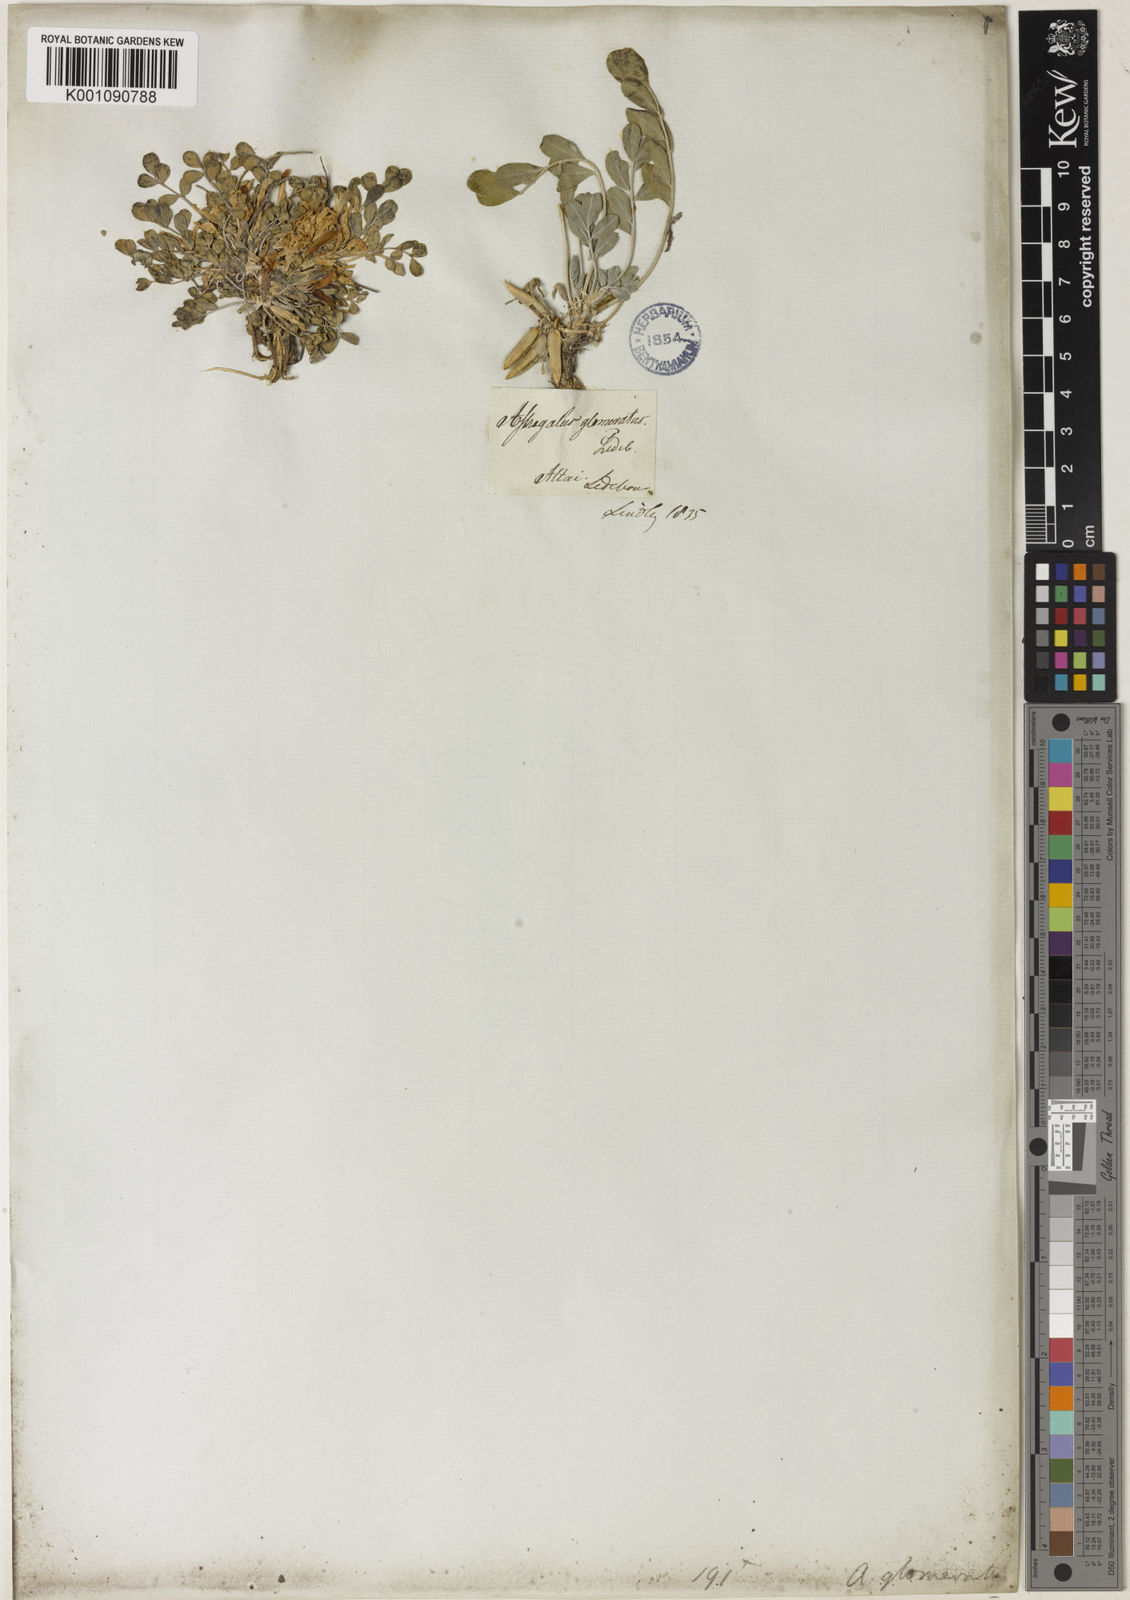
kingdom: Plantae
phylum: Tracheophyta
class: Magnoliopsida
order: Fabales
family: Fabaceae
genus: Astragalus
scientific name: Astragalus
